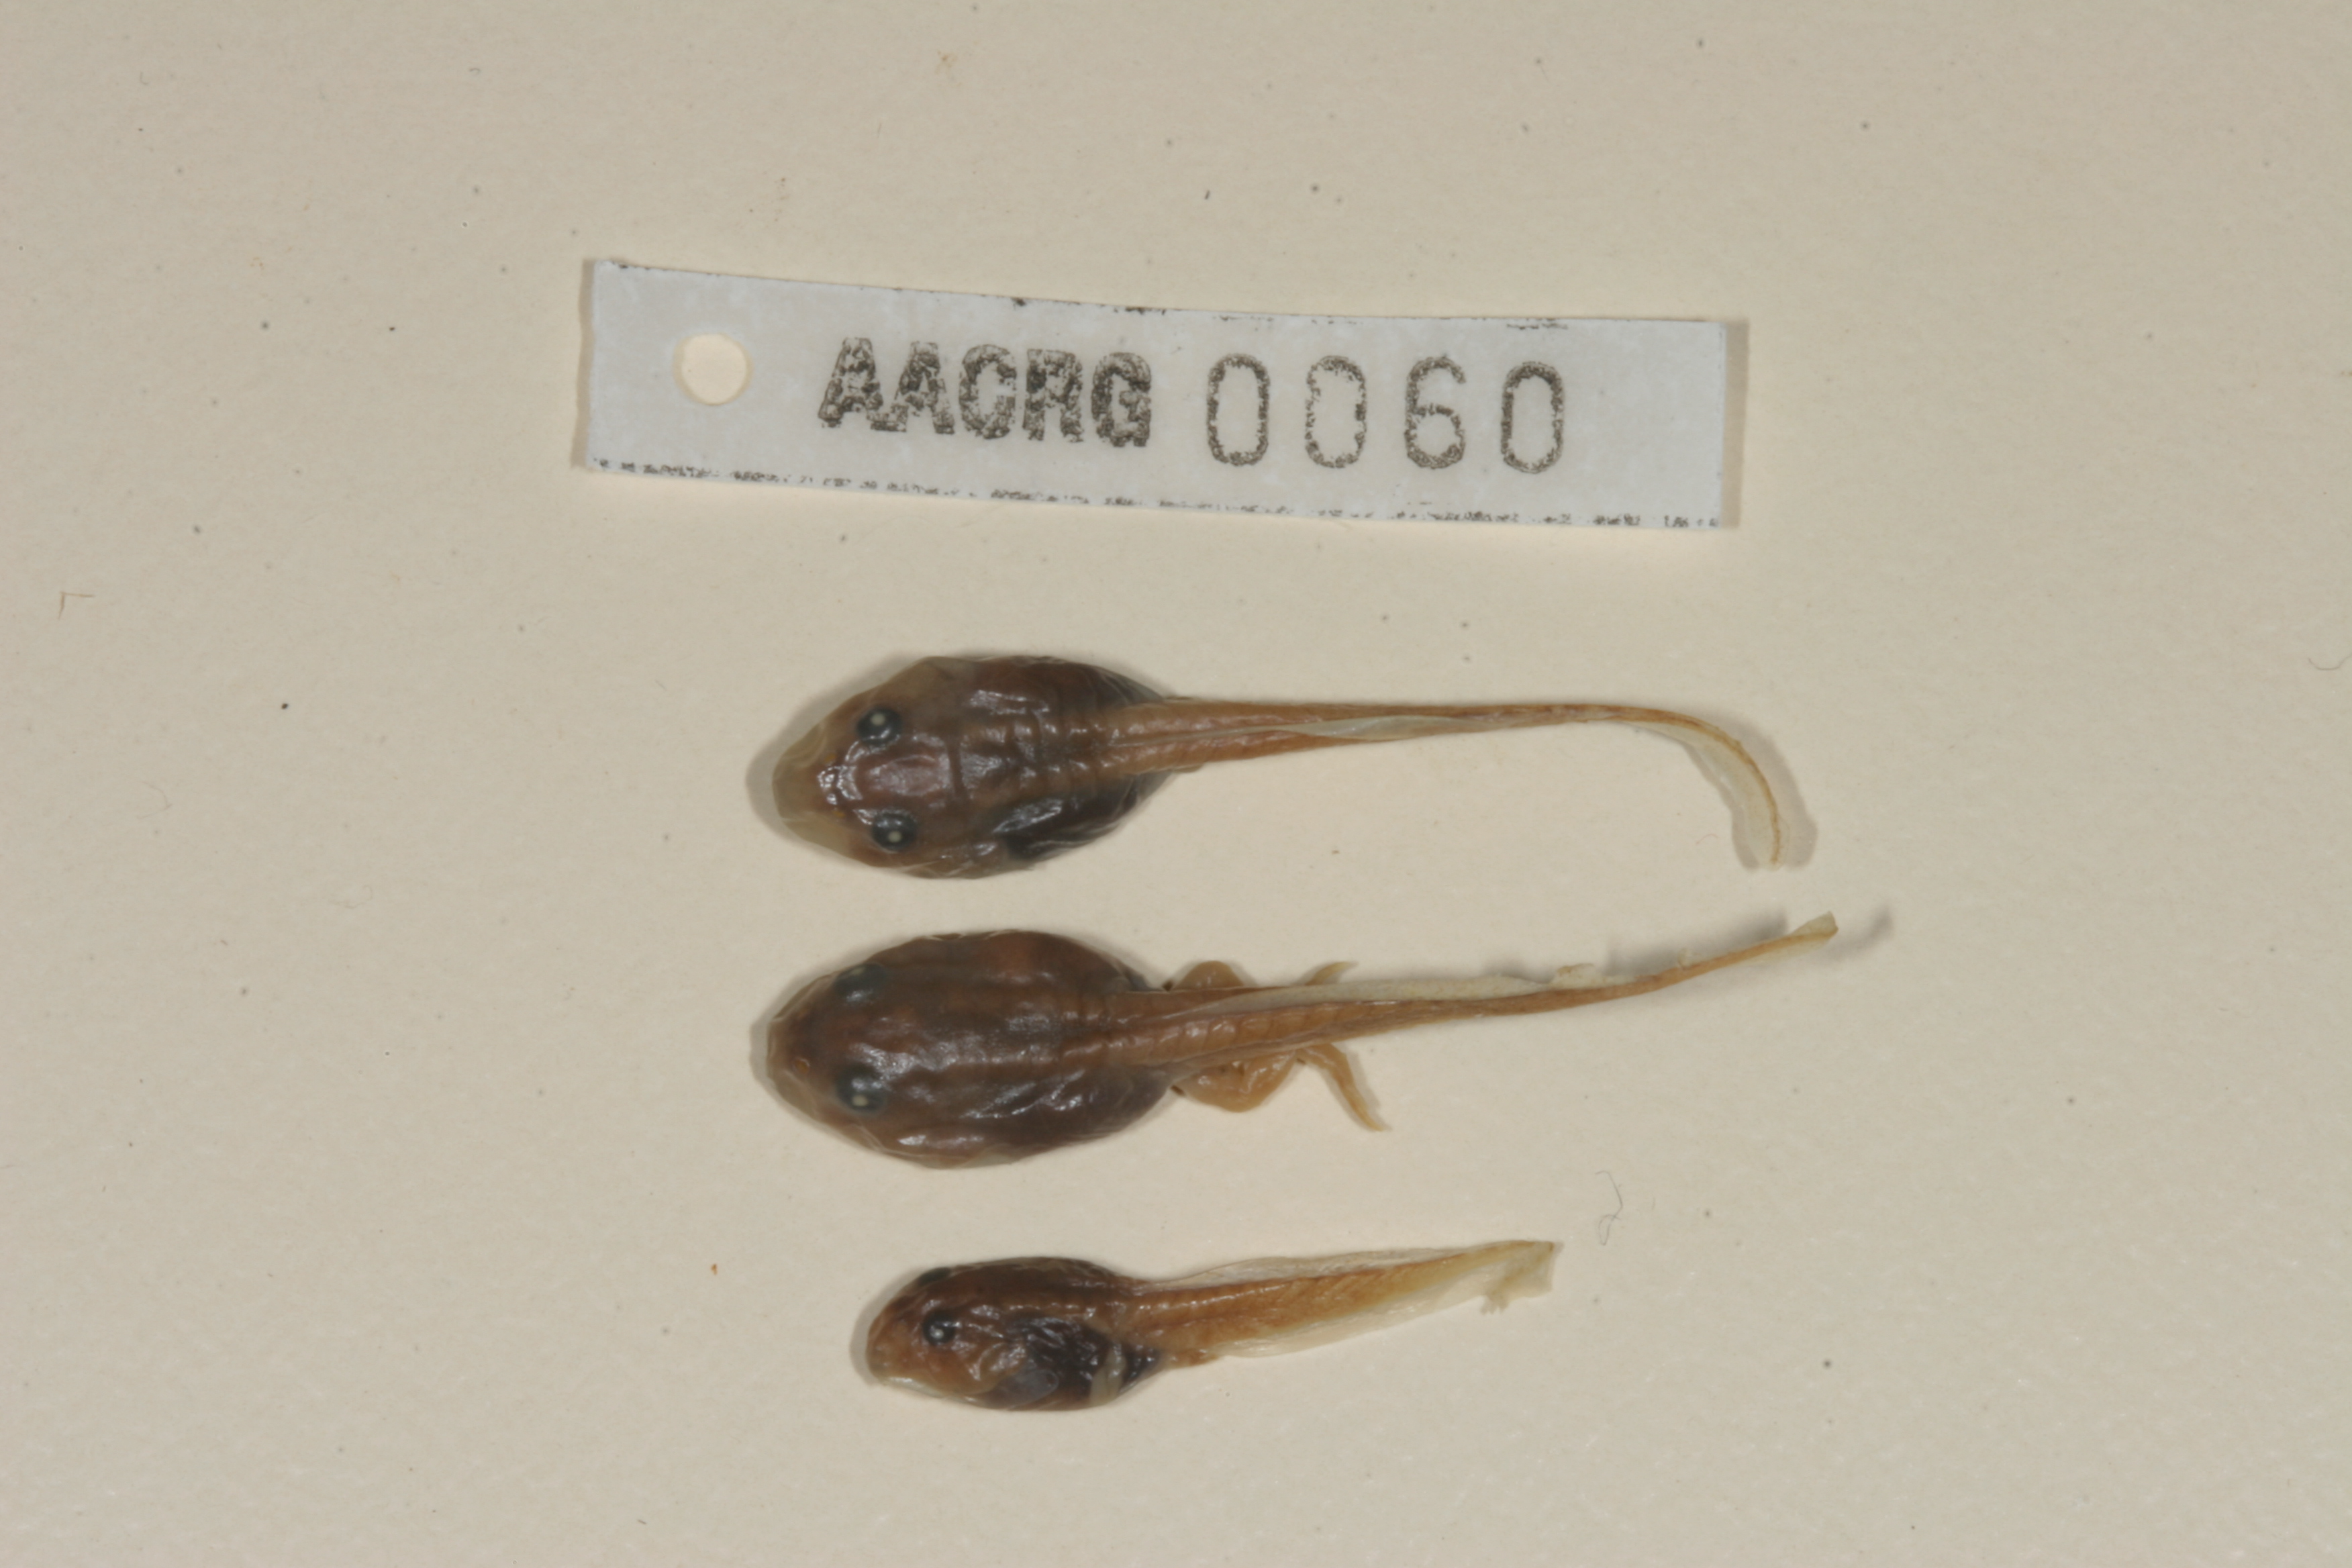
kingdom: Animalia
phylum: Chordata
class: Amphibia
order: Anura
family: Bufonidae
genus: Sclerophrys
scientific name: Sclerophrys poweri
